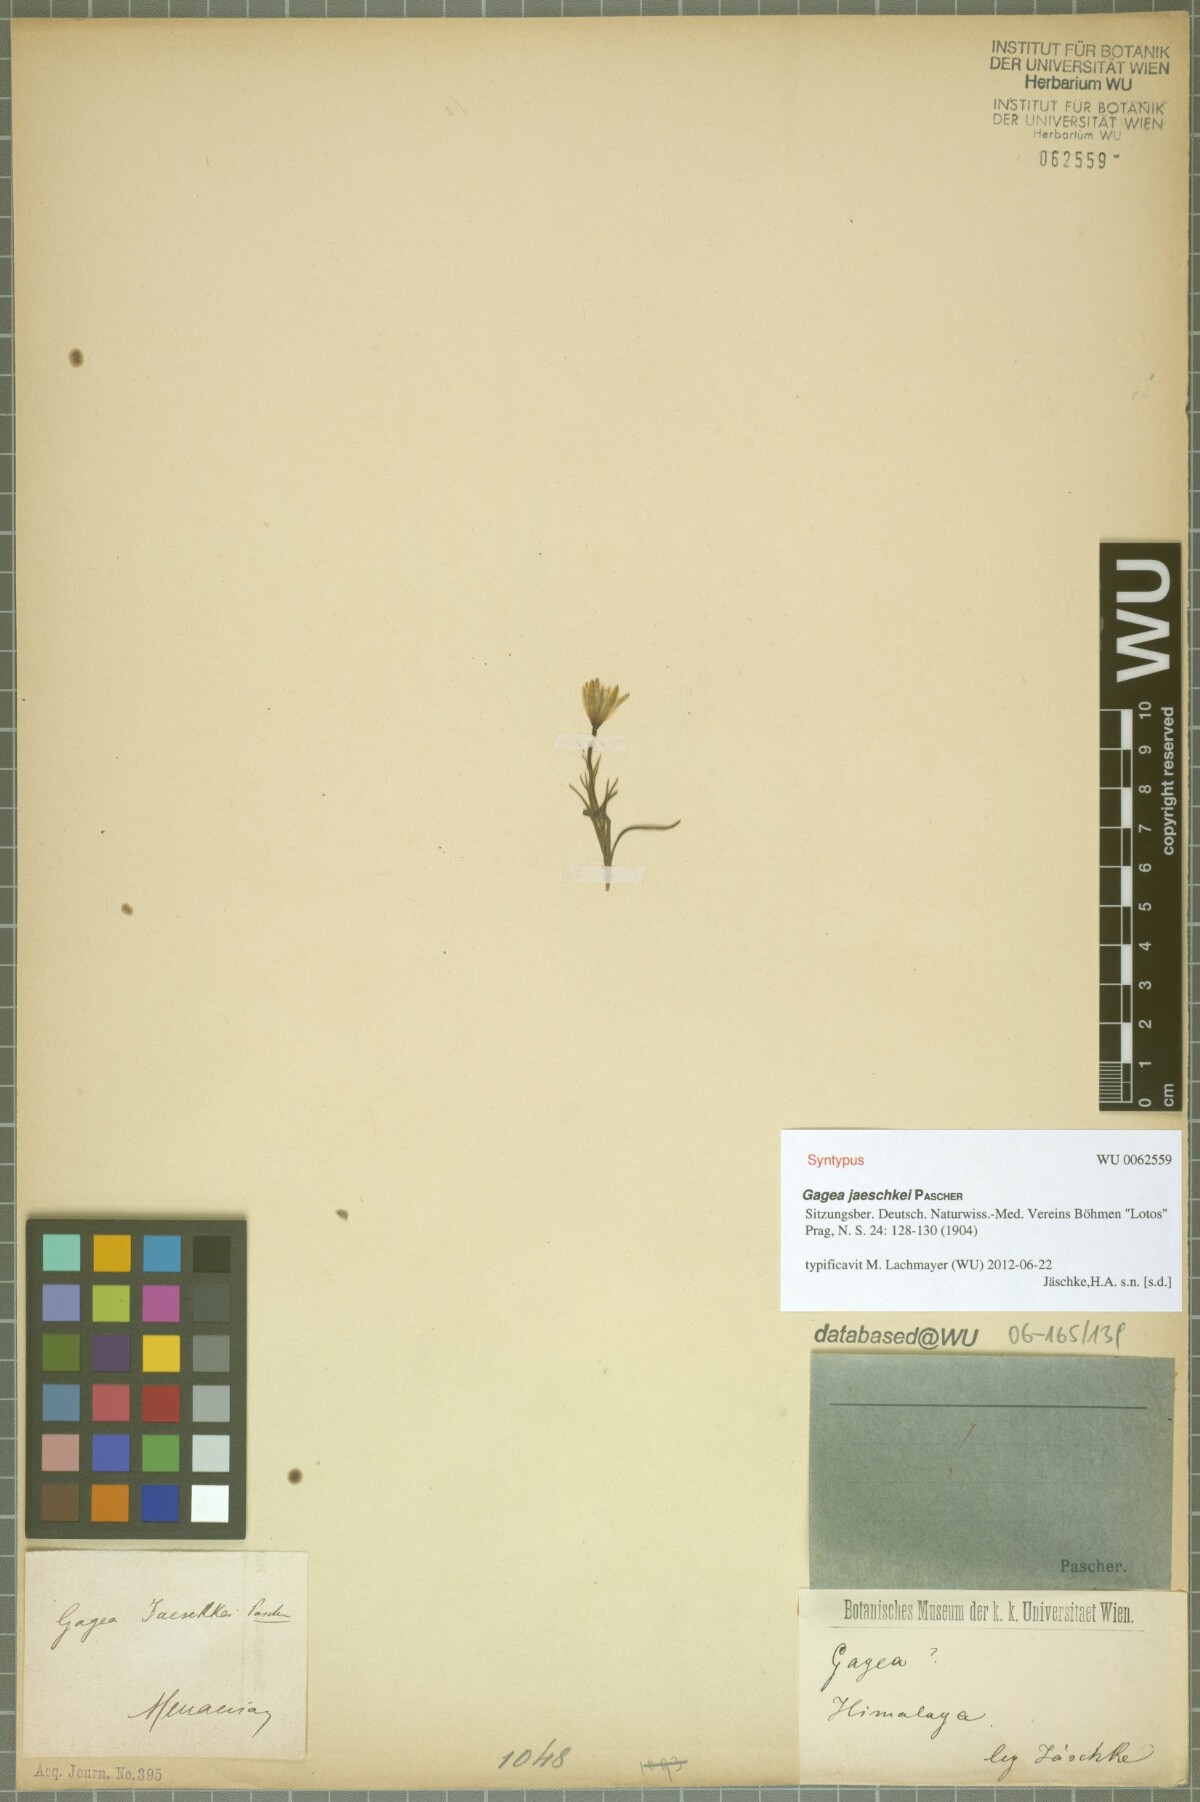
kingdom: Plantae
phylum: Tracheophyta
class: Liliopsida
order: Liliales
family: Liliaceae
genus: Gagea
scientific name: Gagea jaeschkei
